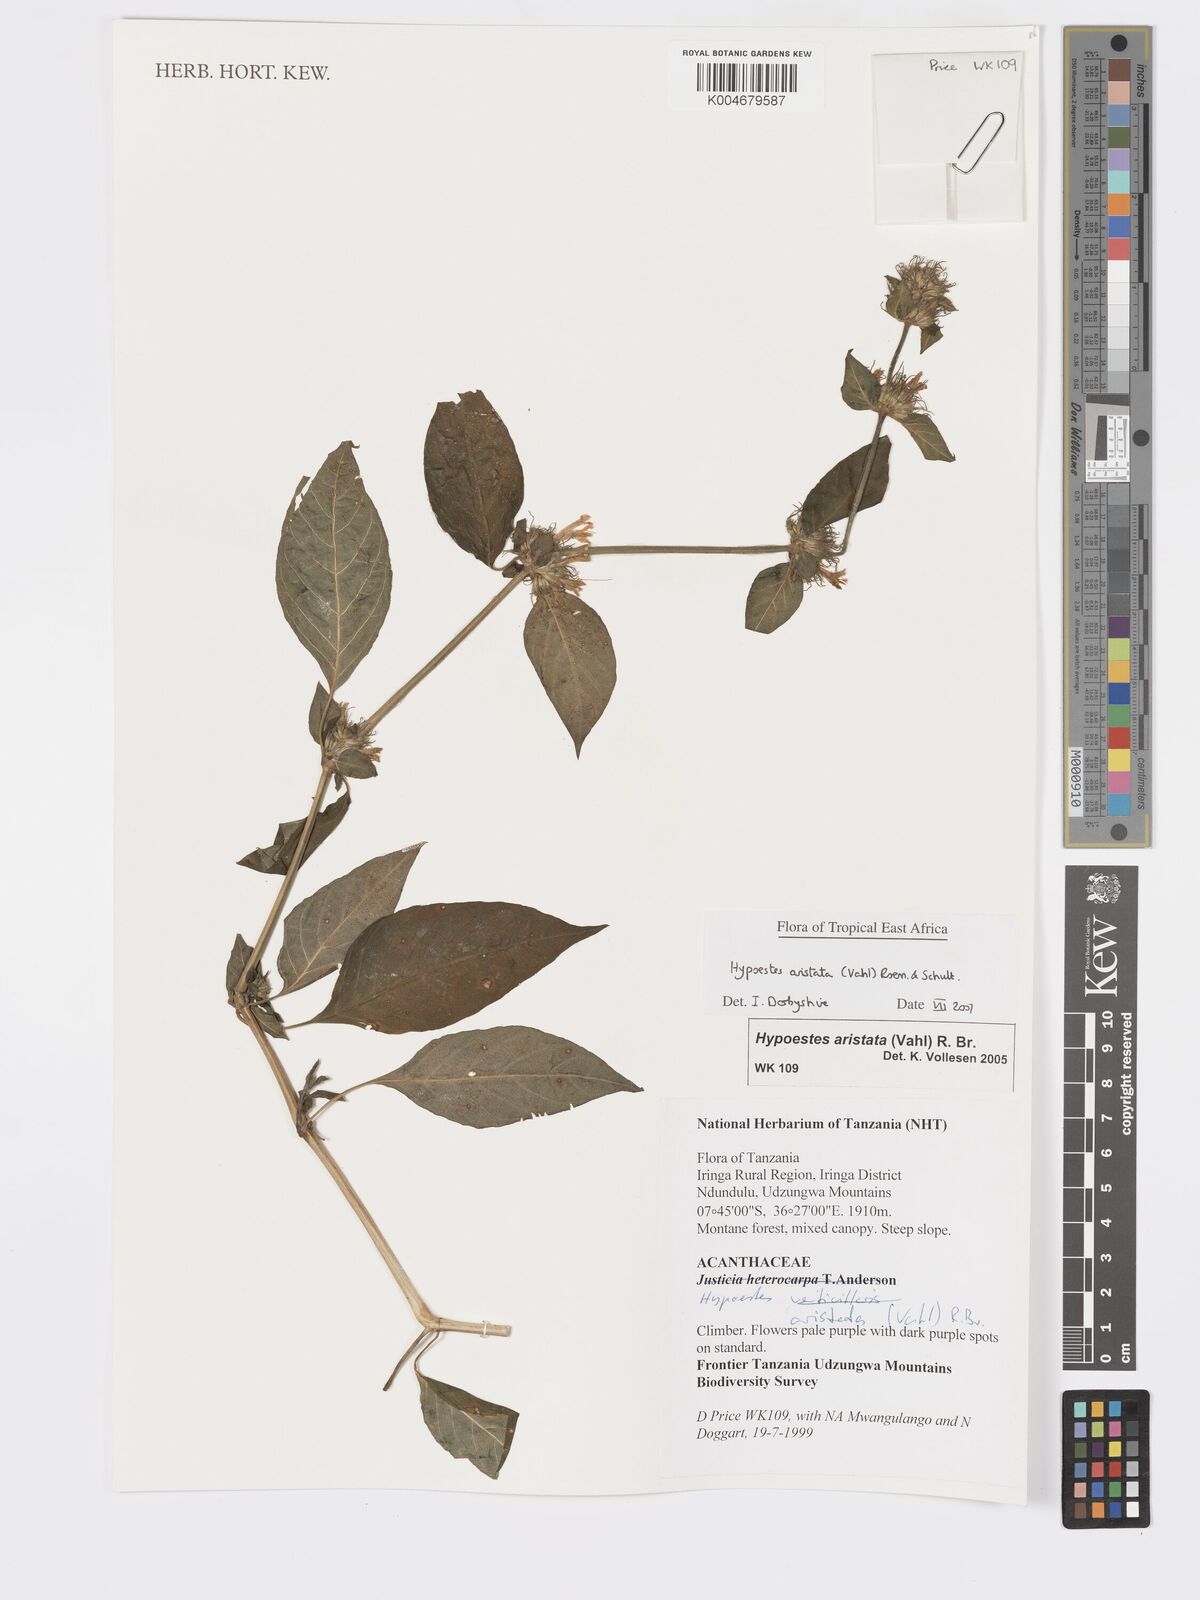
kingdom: Plantae
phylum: Tracheophyta
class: Magnoliopsida
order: Lamiales
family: Acanthaceae
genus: Hypoestes
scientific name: Hypoestes aristata
